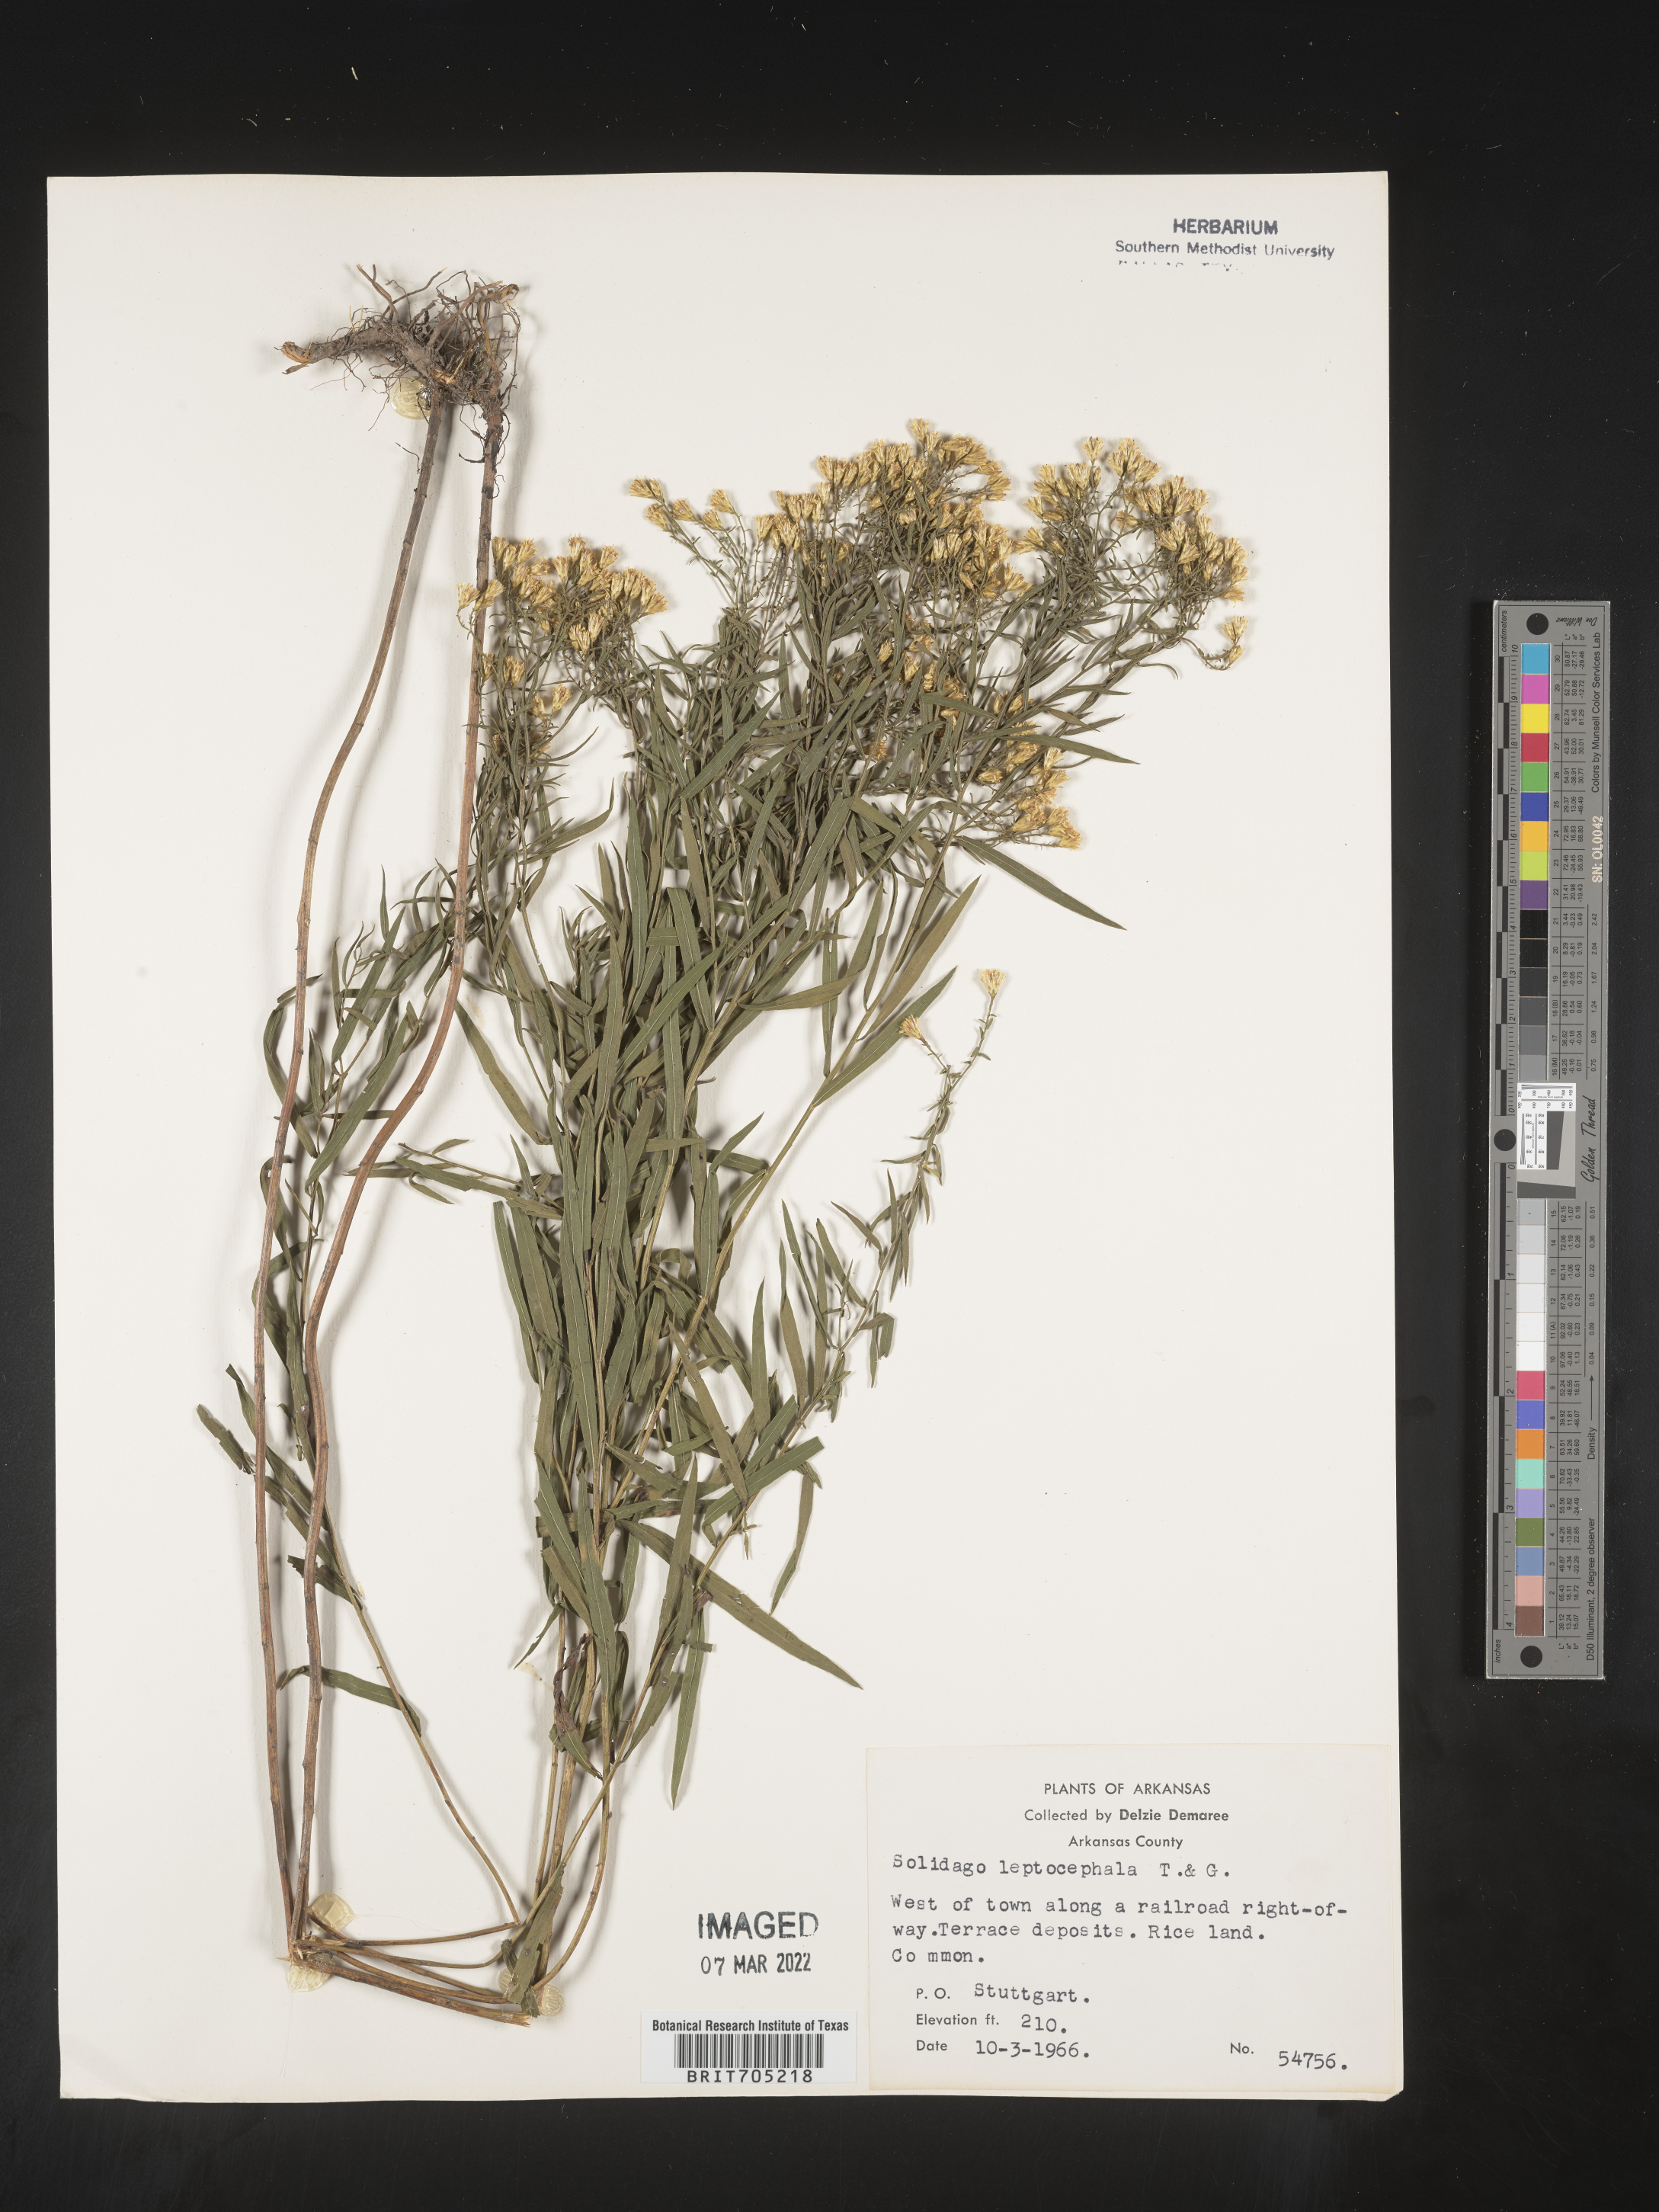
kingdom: Plantae
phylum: Tracheophyta
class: Magnoliopsida
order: Asterales
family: Asteraceae
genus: Euthamia
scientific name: Euthamia leptocephala
